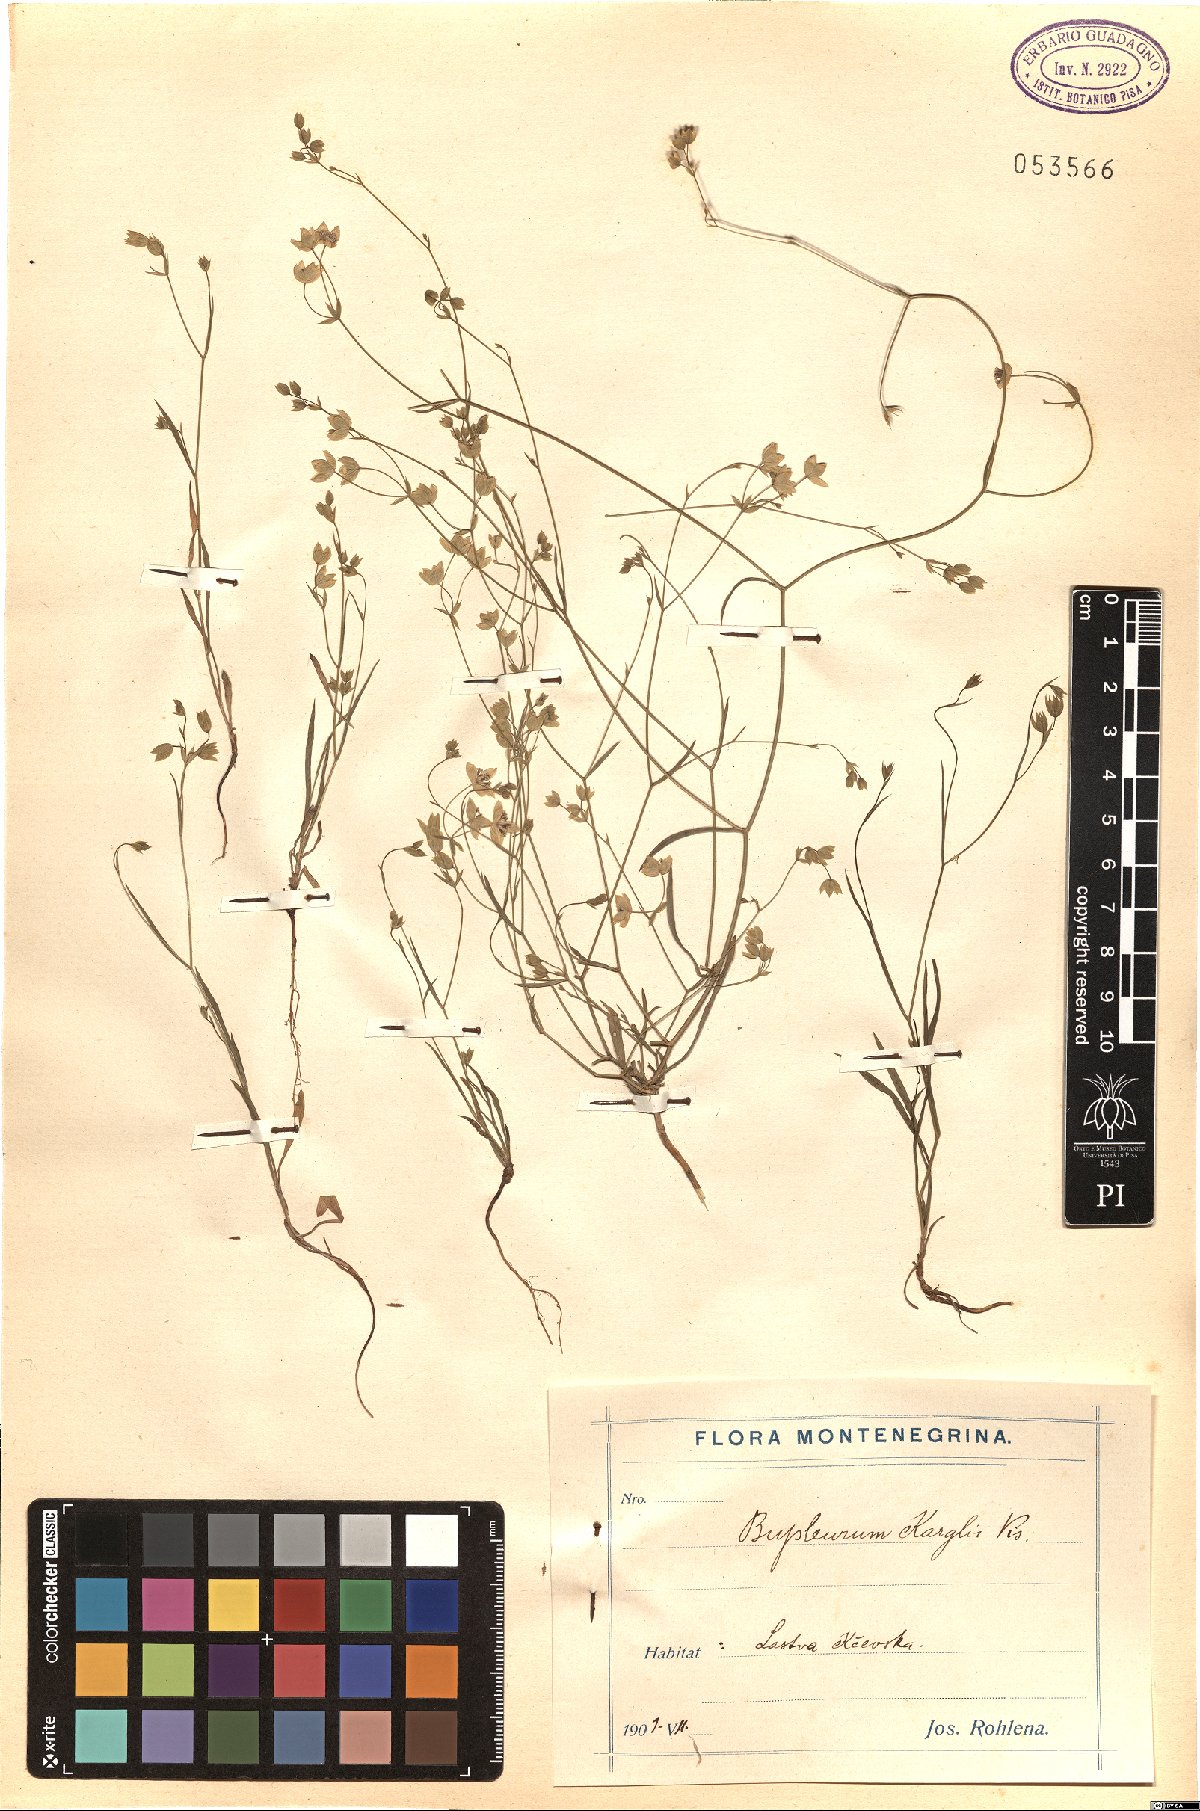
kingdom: Plantae
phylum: Tracheophyta
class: Magnoliopsida
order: Apiales
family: Apiaceae
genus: Bupleurum
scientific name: Bupleurum karglii
